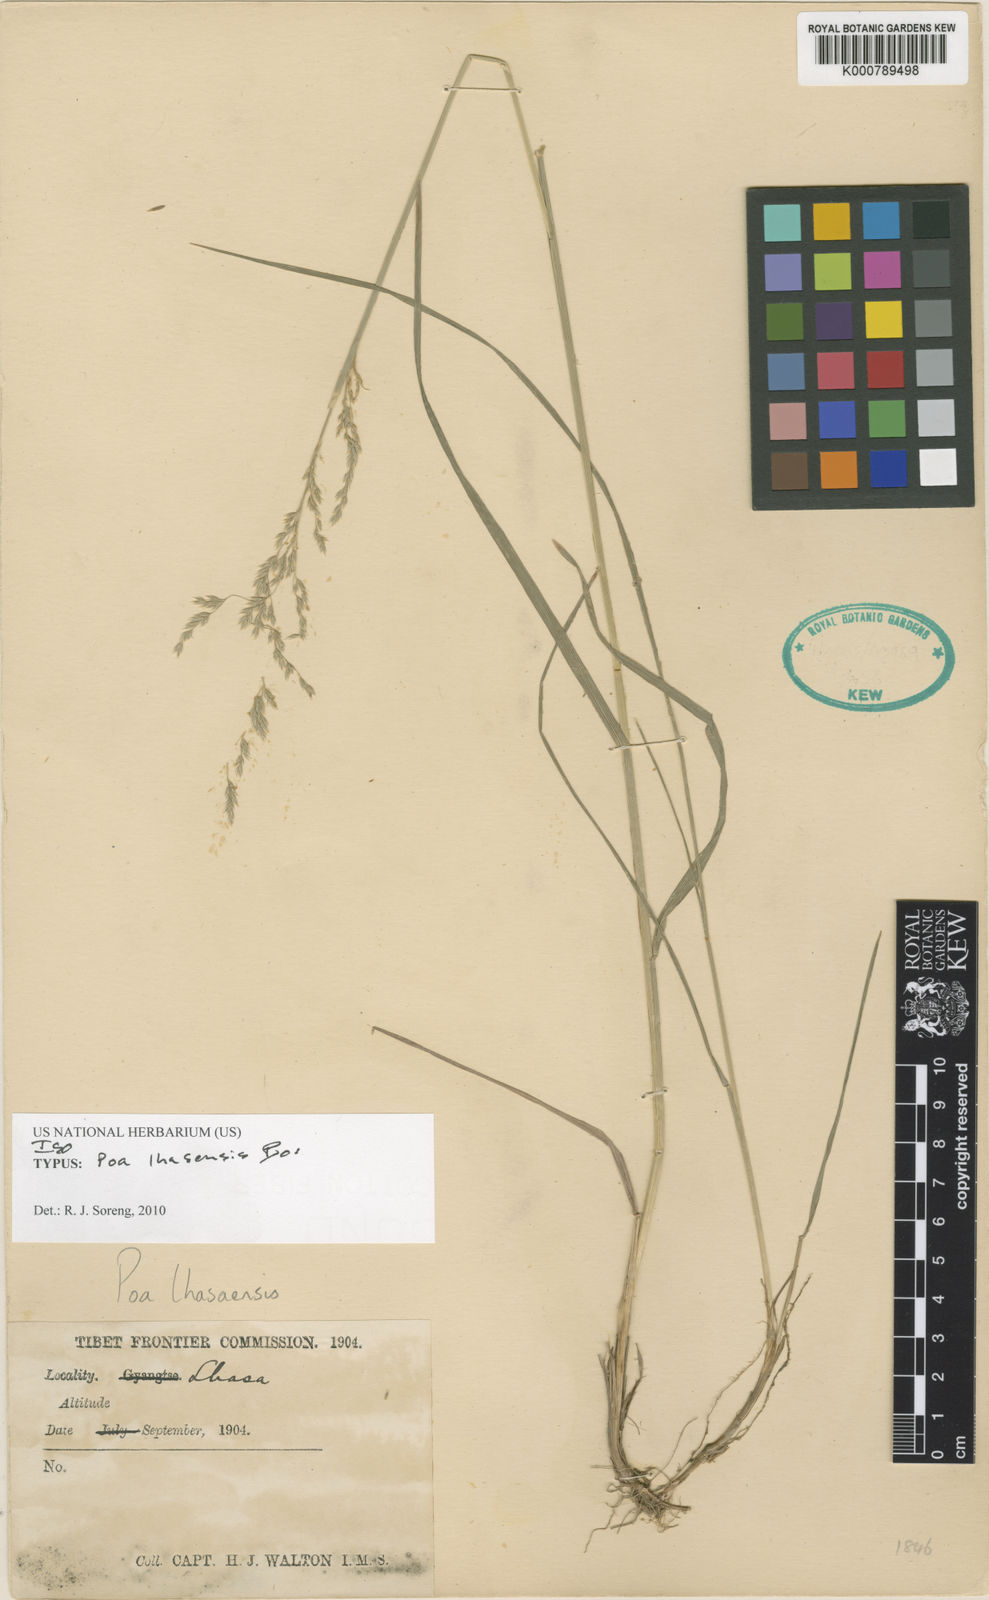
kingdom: Plantae
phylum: Tracheophyta
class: Liliopsida
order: Poales
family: Poaceae
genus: Poa
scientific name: Poa lhasaensis
